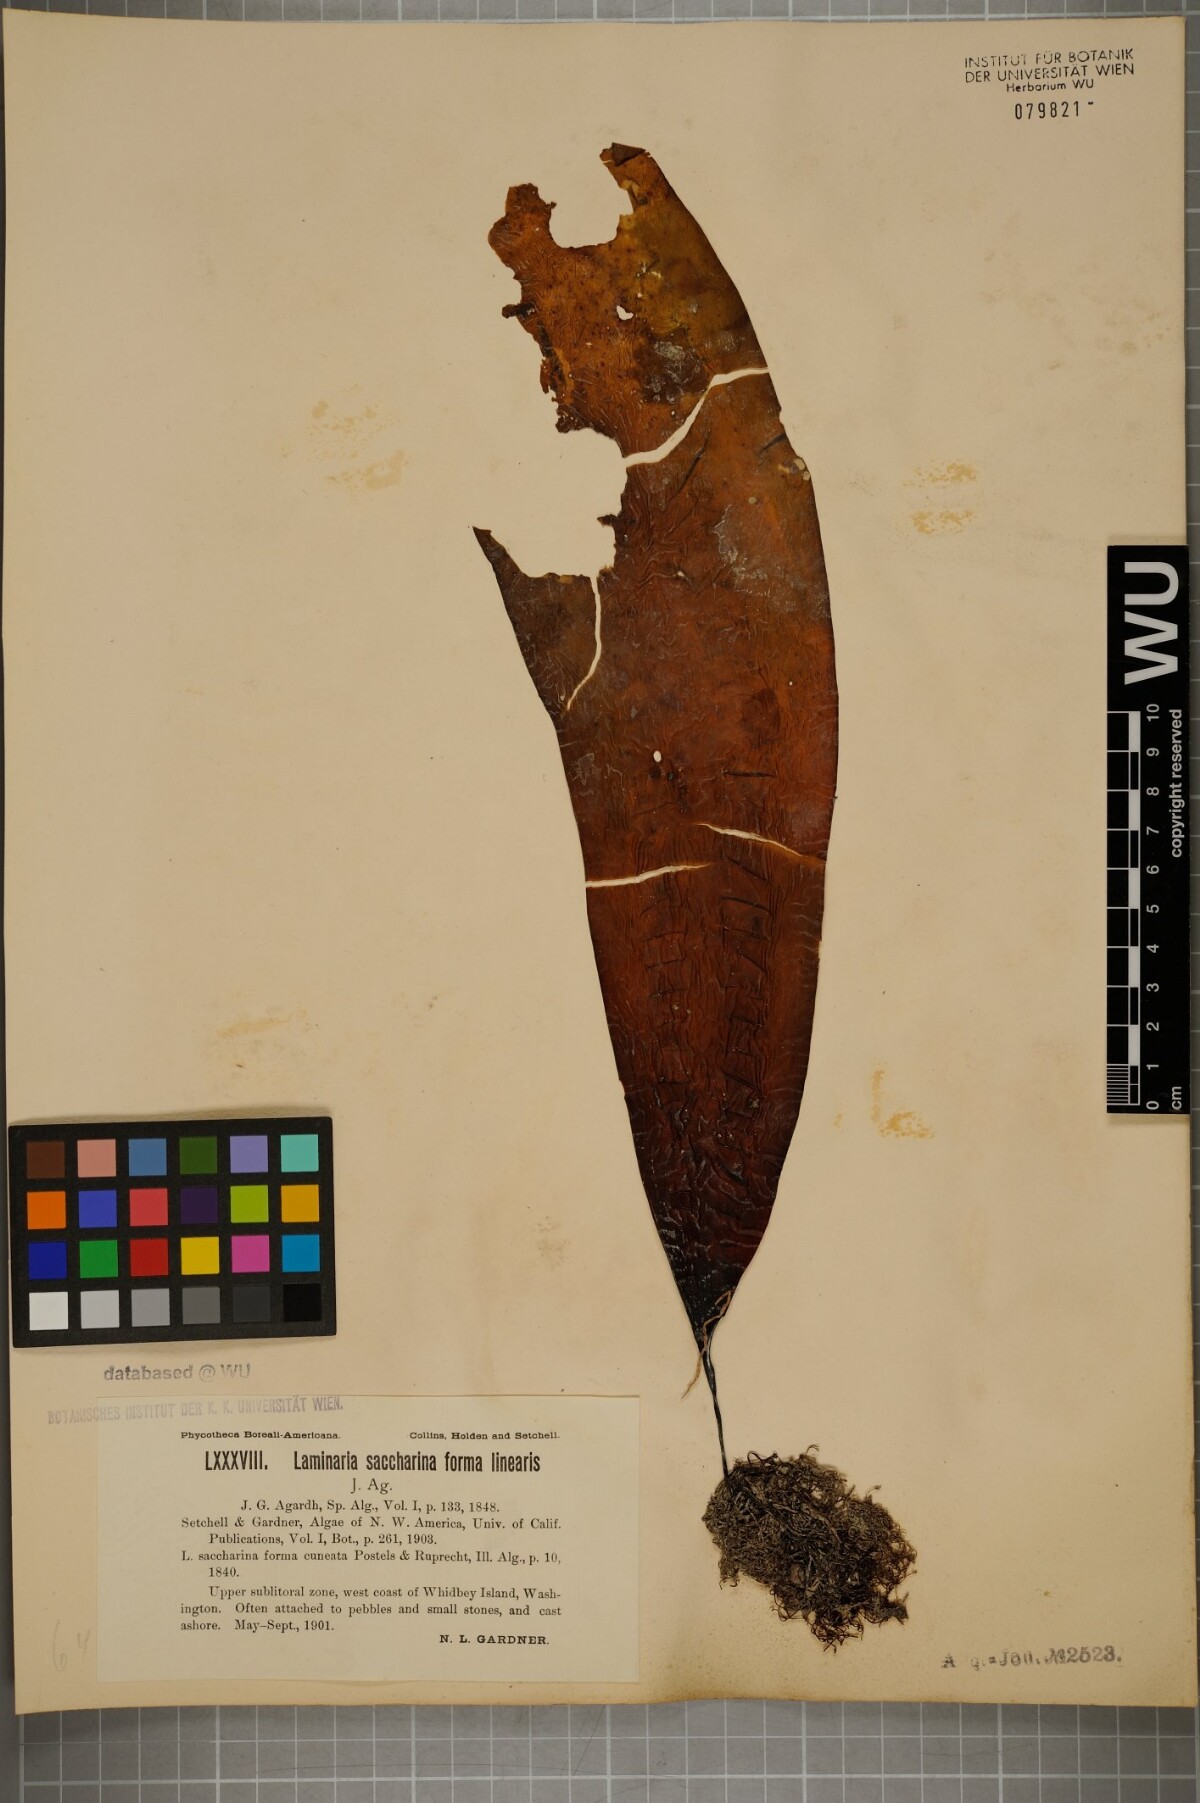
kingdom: Chromista
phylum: Ochrophyta
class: Phaeophyceae
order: Laminariales
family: Laminariaceae
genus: Saccharina
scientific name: Saccharina latissima
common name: Poor man's weather glass
